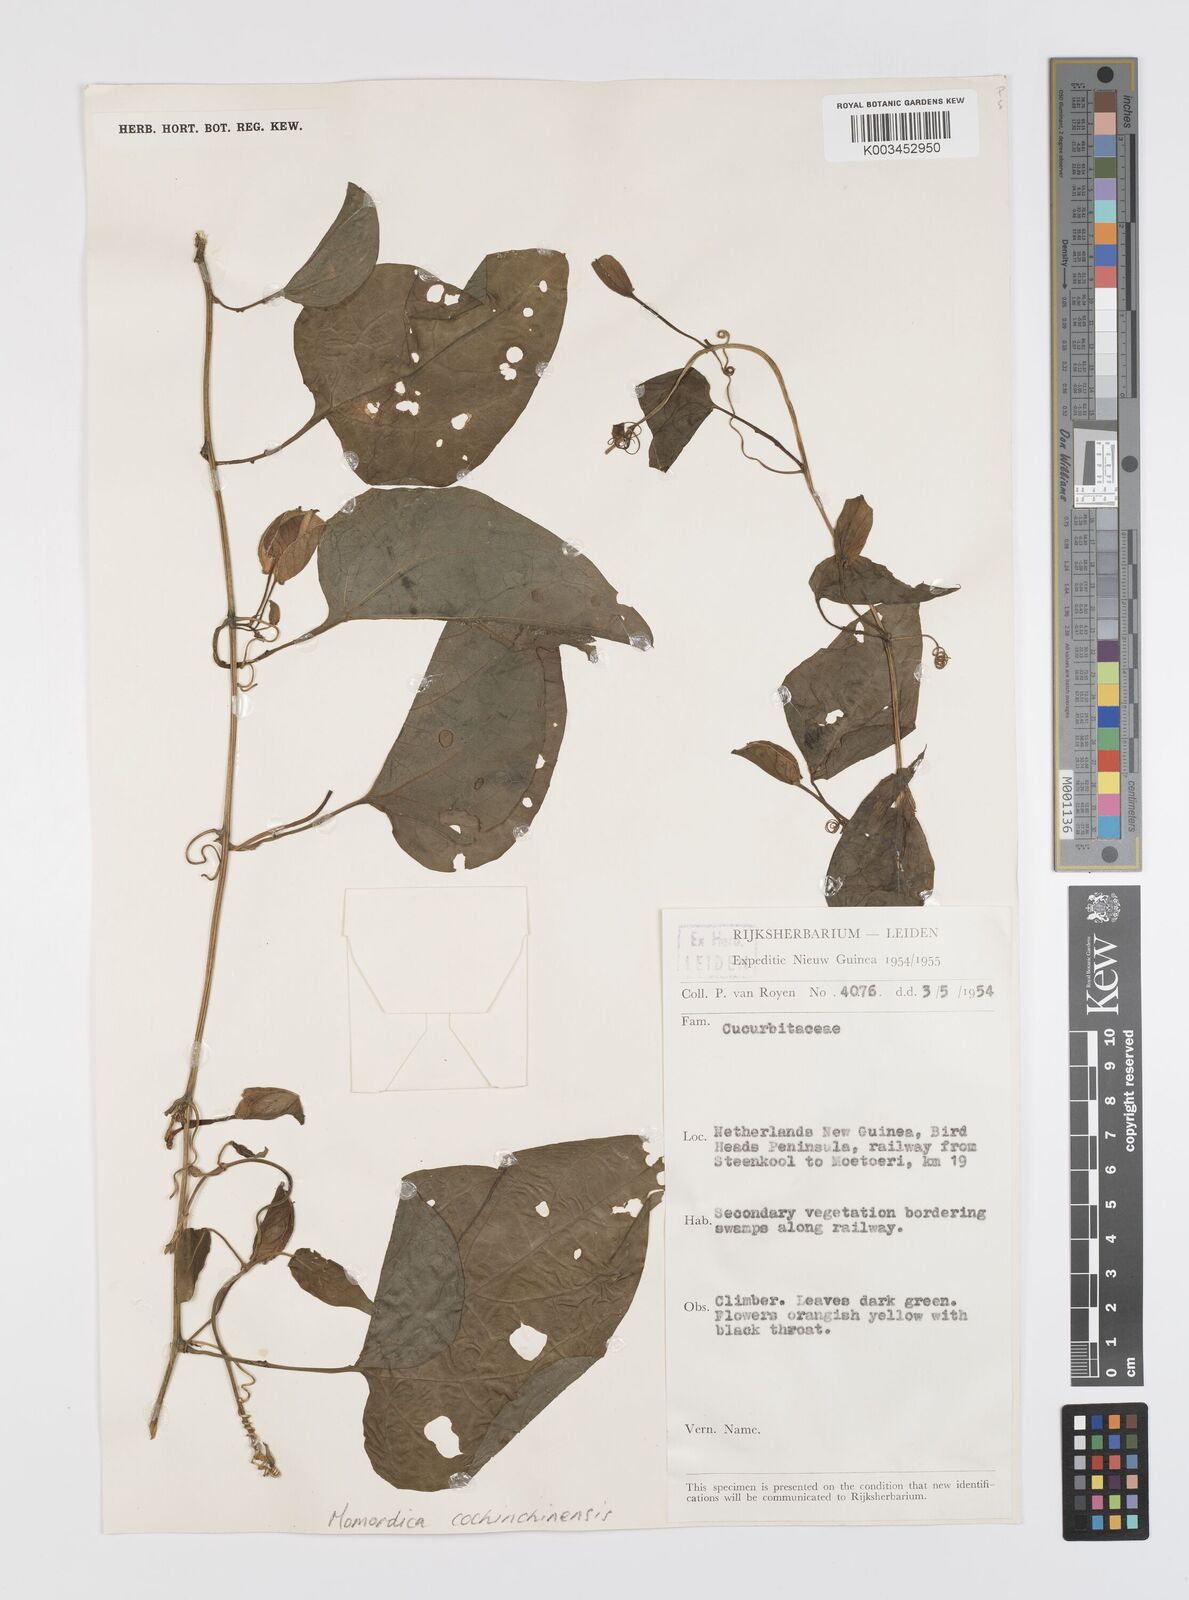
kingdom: Plantae
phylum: Tracheophyta
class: Magnoliopsida
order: Cucurbitales
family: Cucurbitaceae
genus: Momordica
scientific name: Momordica cochinchinensis
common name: Chinese bitter-cucumber
